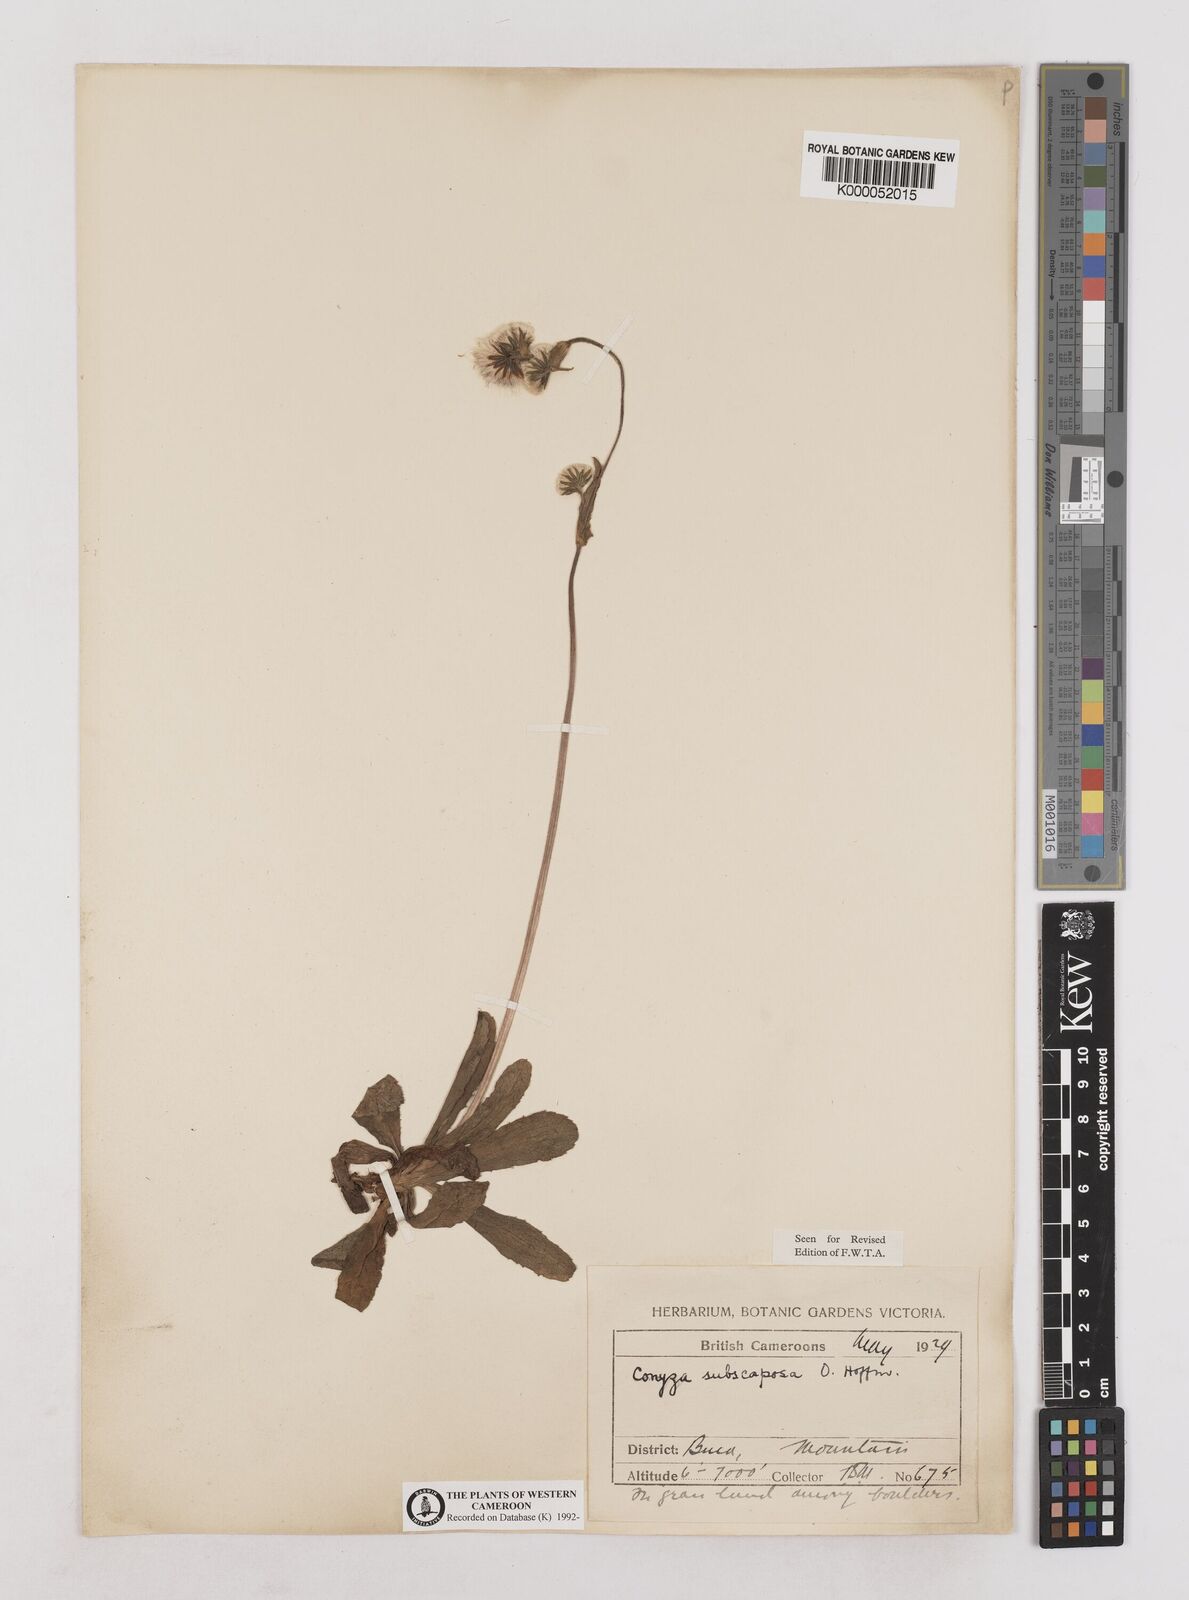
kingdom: Plantae
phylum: Tracheophyta
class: Magnoliopsida
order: Asterales
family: Asteraceae
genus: Eschenbachia
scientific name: Eschenbachia subscaposa
